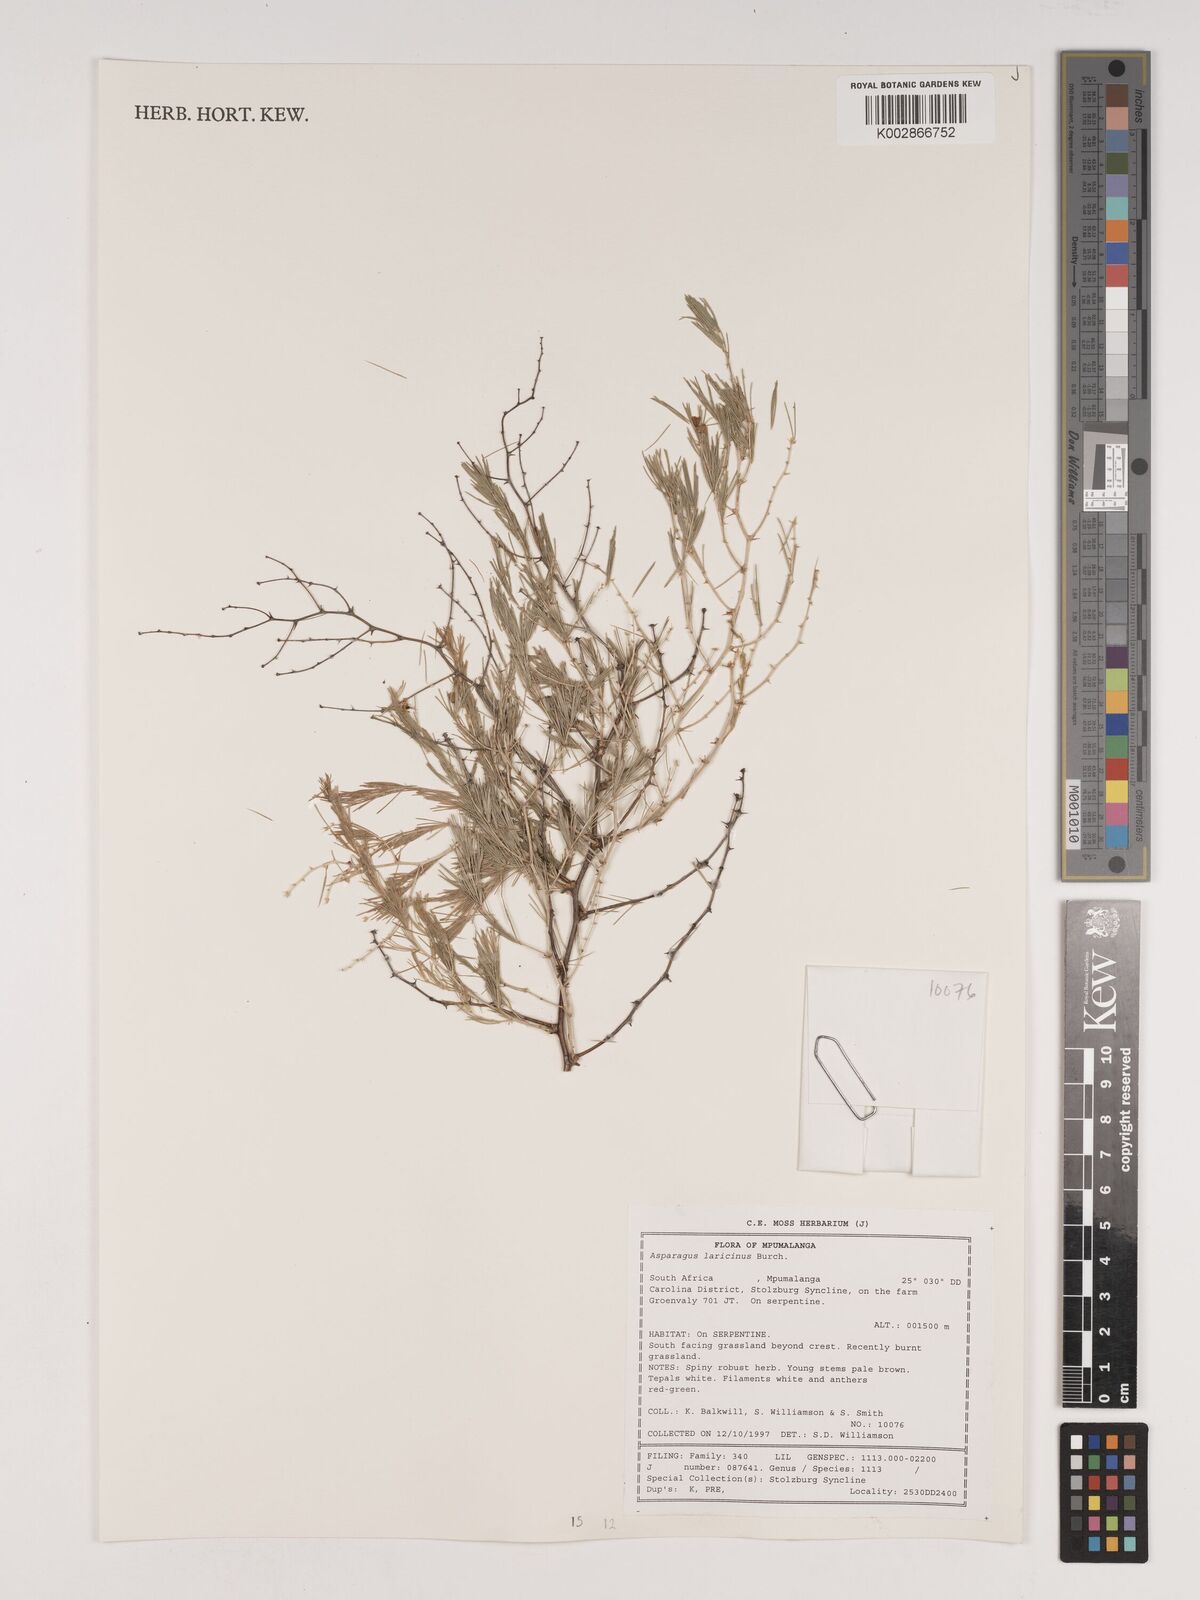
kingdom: Plantae
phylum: Tracheophyta
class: Liliopsida
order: Asparagales
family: Asparagaceae
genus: Asparagus
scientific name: Asparagus laricinus
